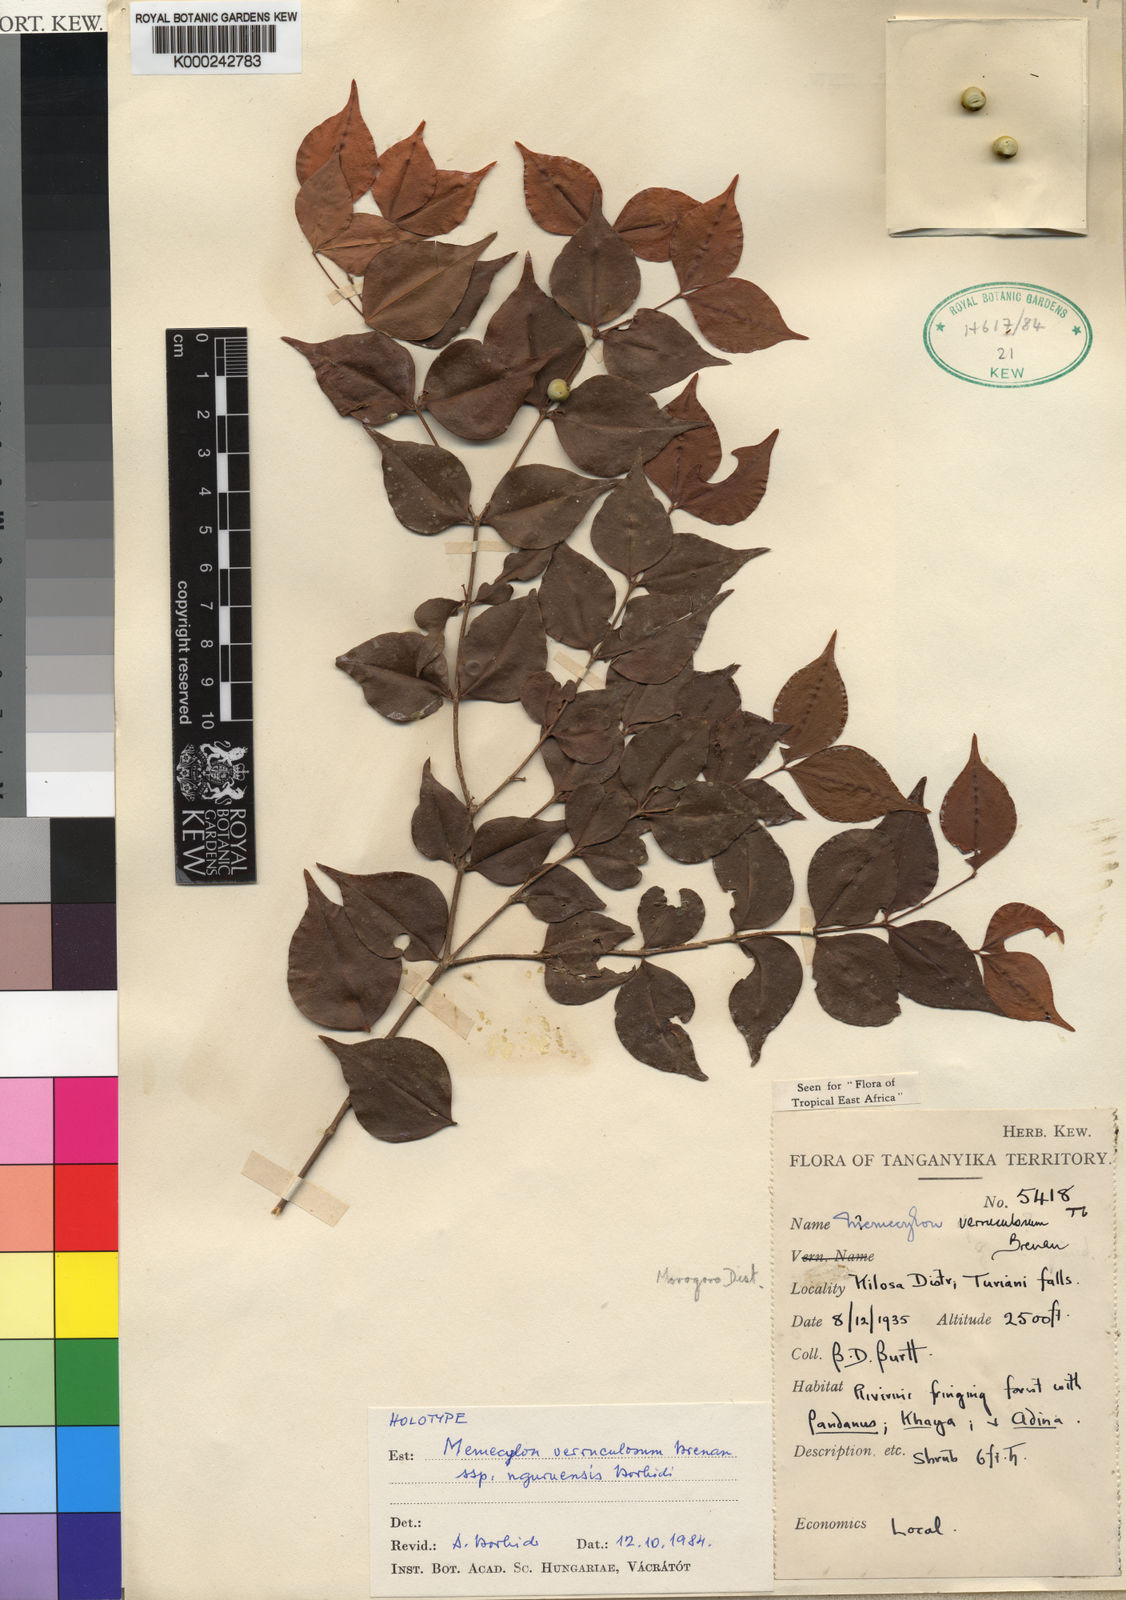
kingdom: Plantae
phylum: Tracheophyta
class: Magnoliopsida
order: Myrtales
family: Melastomataceae
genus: Memecylon
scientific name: Memecylon verruculosum
